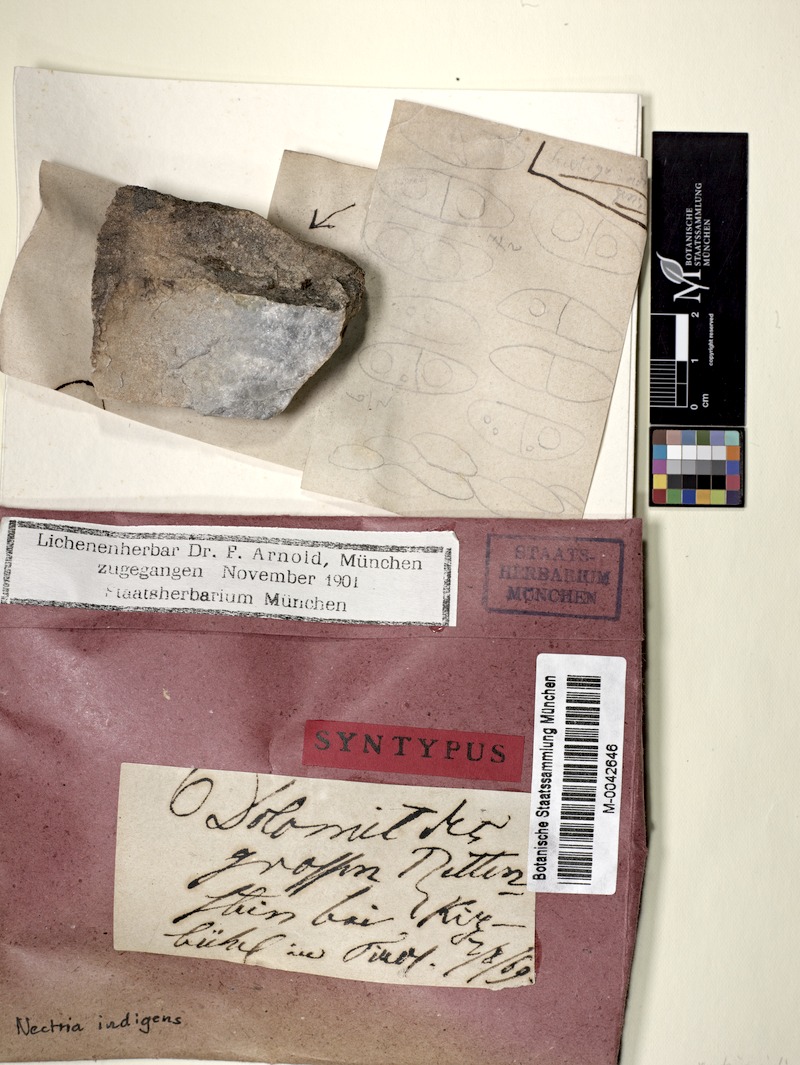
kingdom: Fungi
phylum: Ascomycota
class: Sordariomycetes
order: Hypocreales
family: Bionectriaceae
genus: Nectriopsis
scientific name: Nectriopsis indigens
